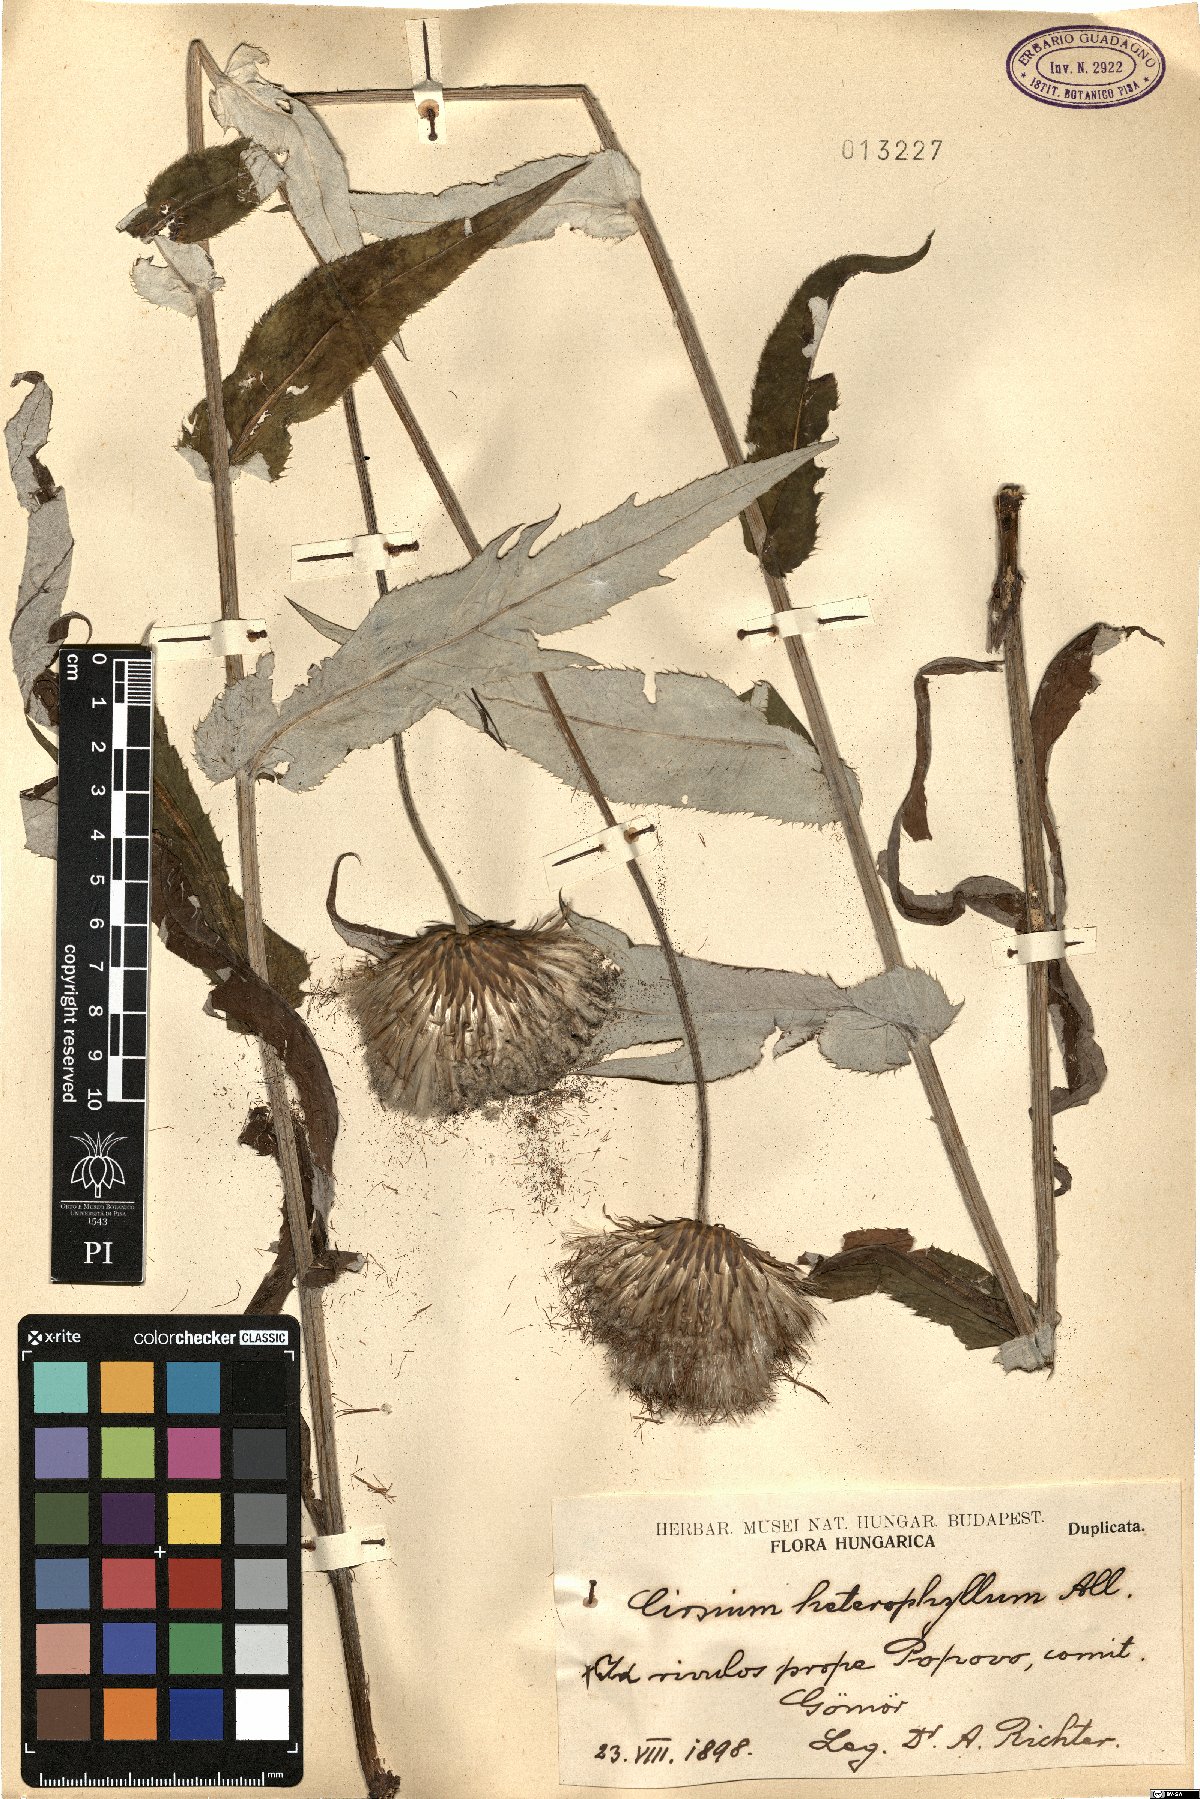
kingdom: Plantae
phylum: Tracheophyta
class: Magnoliopsida
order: Asterales
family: Asteraceae
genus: Cirsium
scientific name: Cirsium heterophyllum
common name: Melancholy thistle
